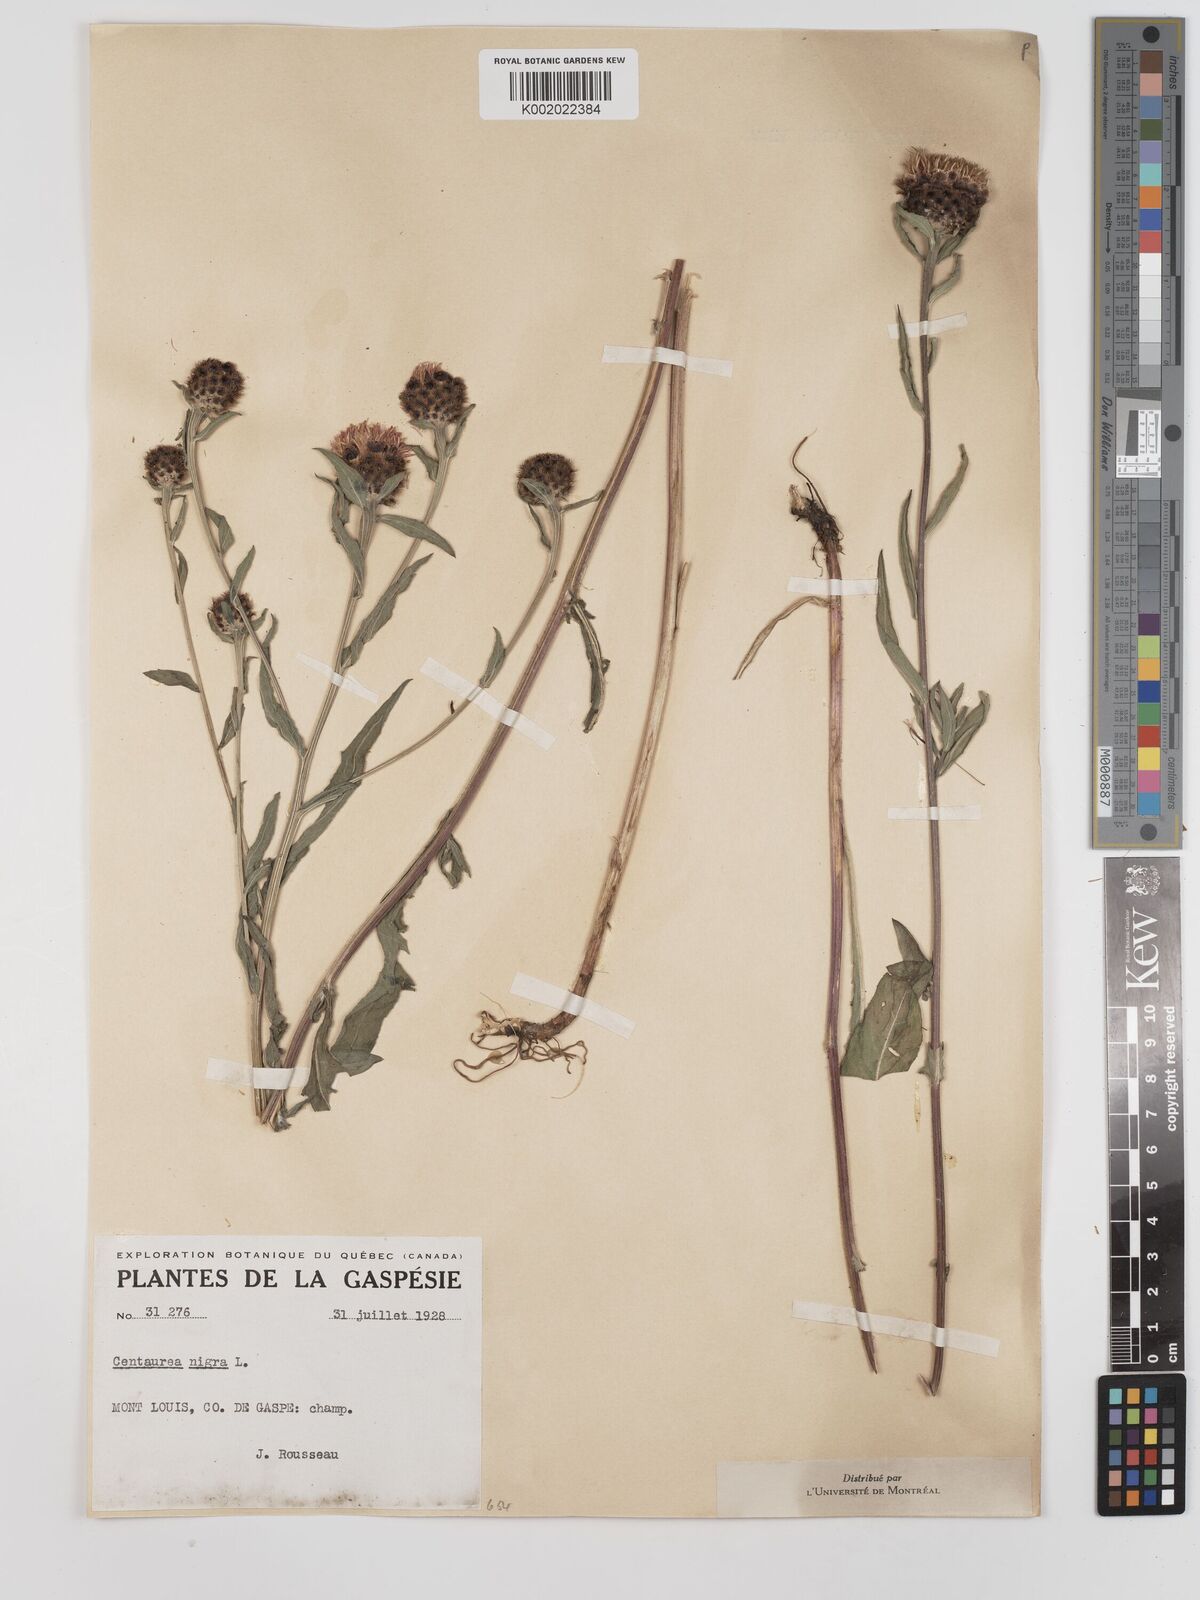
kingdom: Plantae
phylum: Tracheophyta
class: Magnoliopsida
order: Asterales
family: Asteraceae
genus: Centaurea
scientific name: Centaurea nigra
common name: Lesser knapweed
